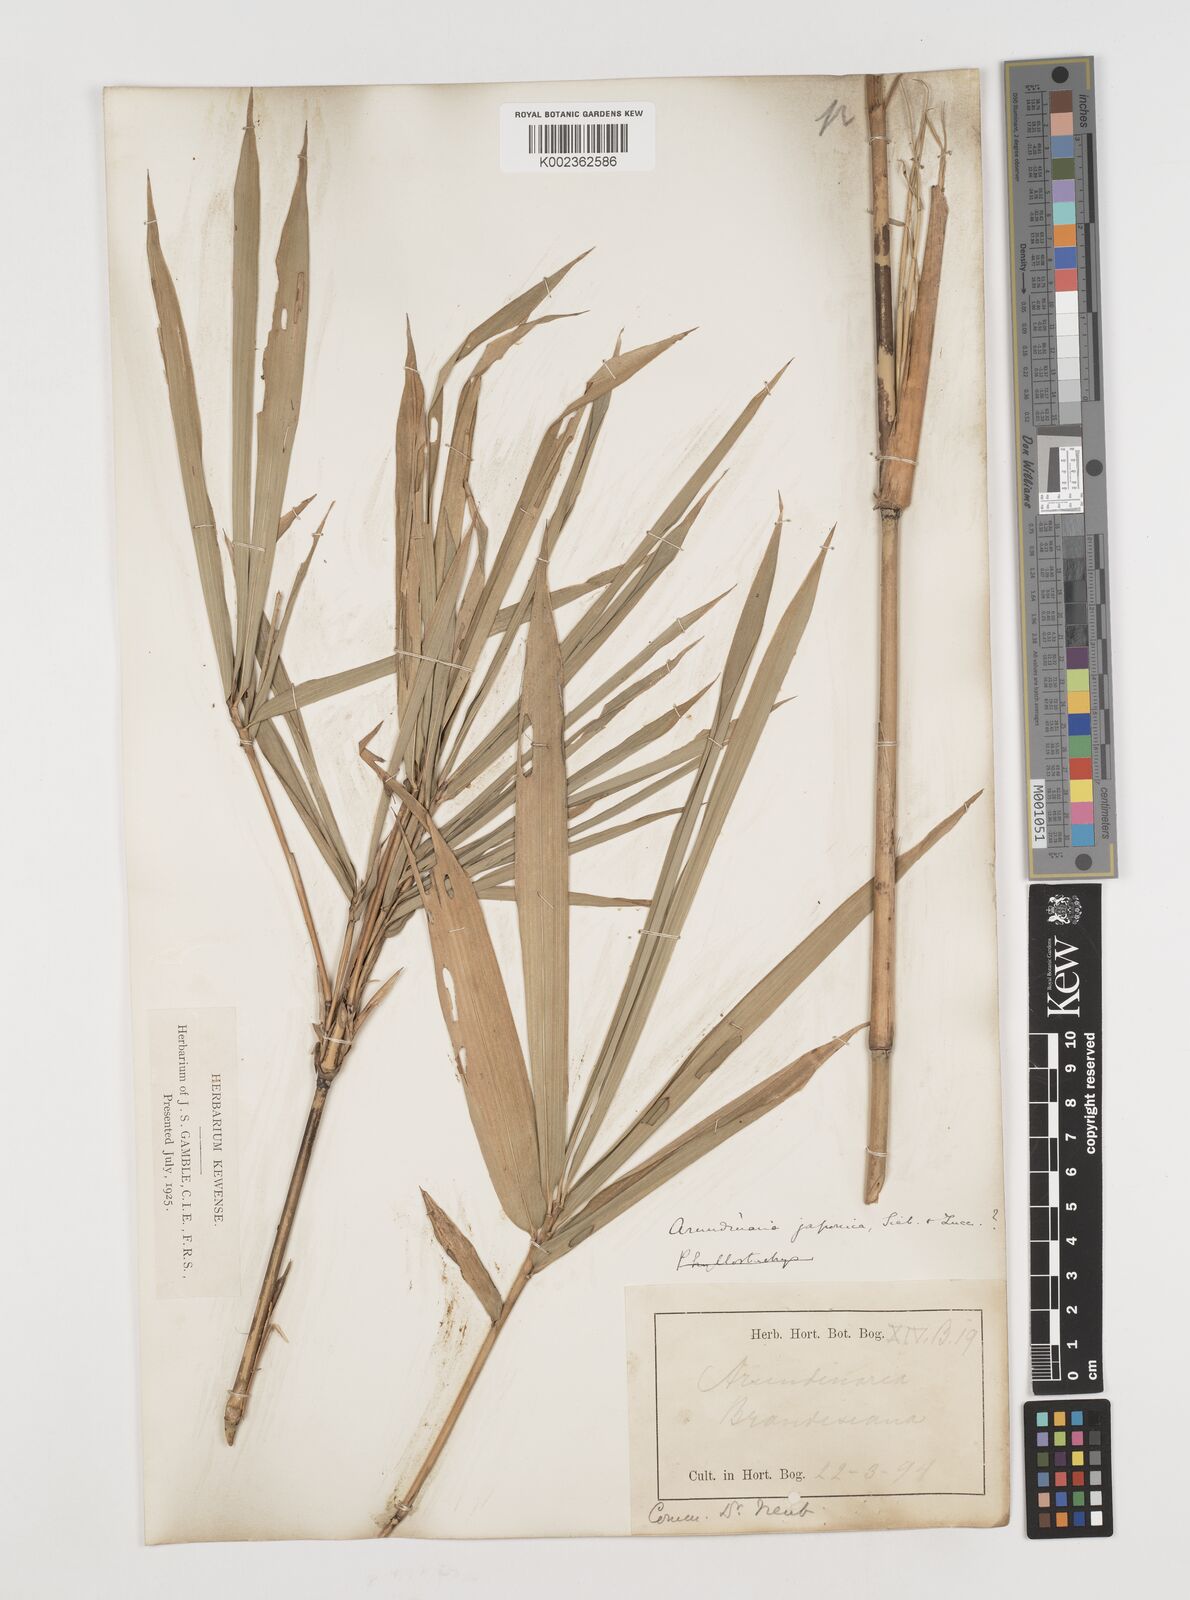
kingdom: Plantae
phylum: Tracheophyta
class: Liliopsida
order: Poales
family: Poaceae
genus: Pseudosasa
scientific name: Pseudosasa japonica
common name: Arrow bamboo
